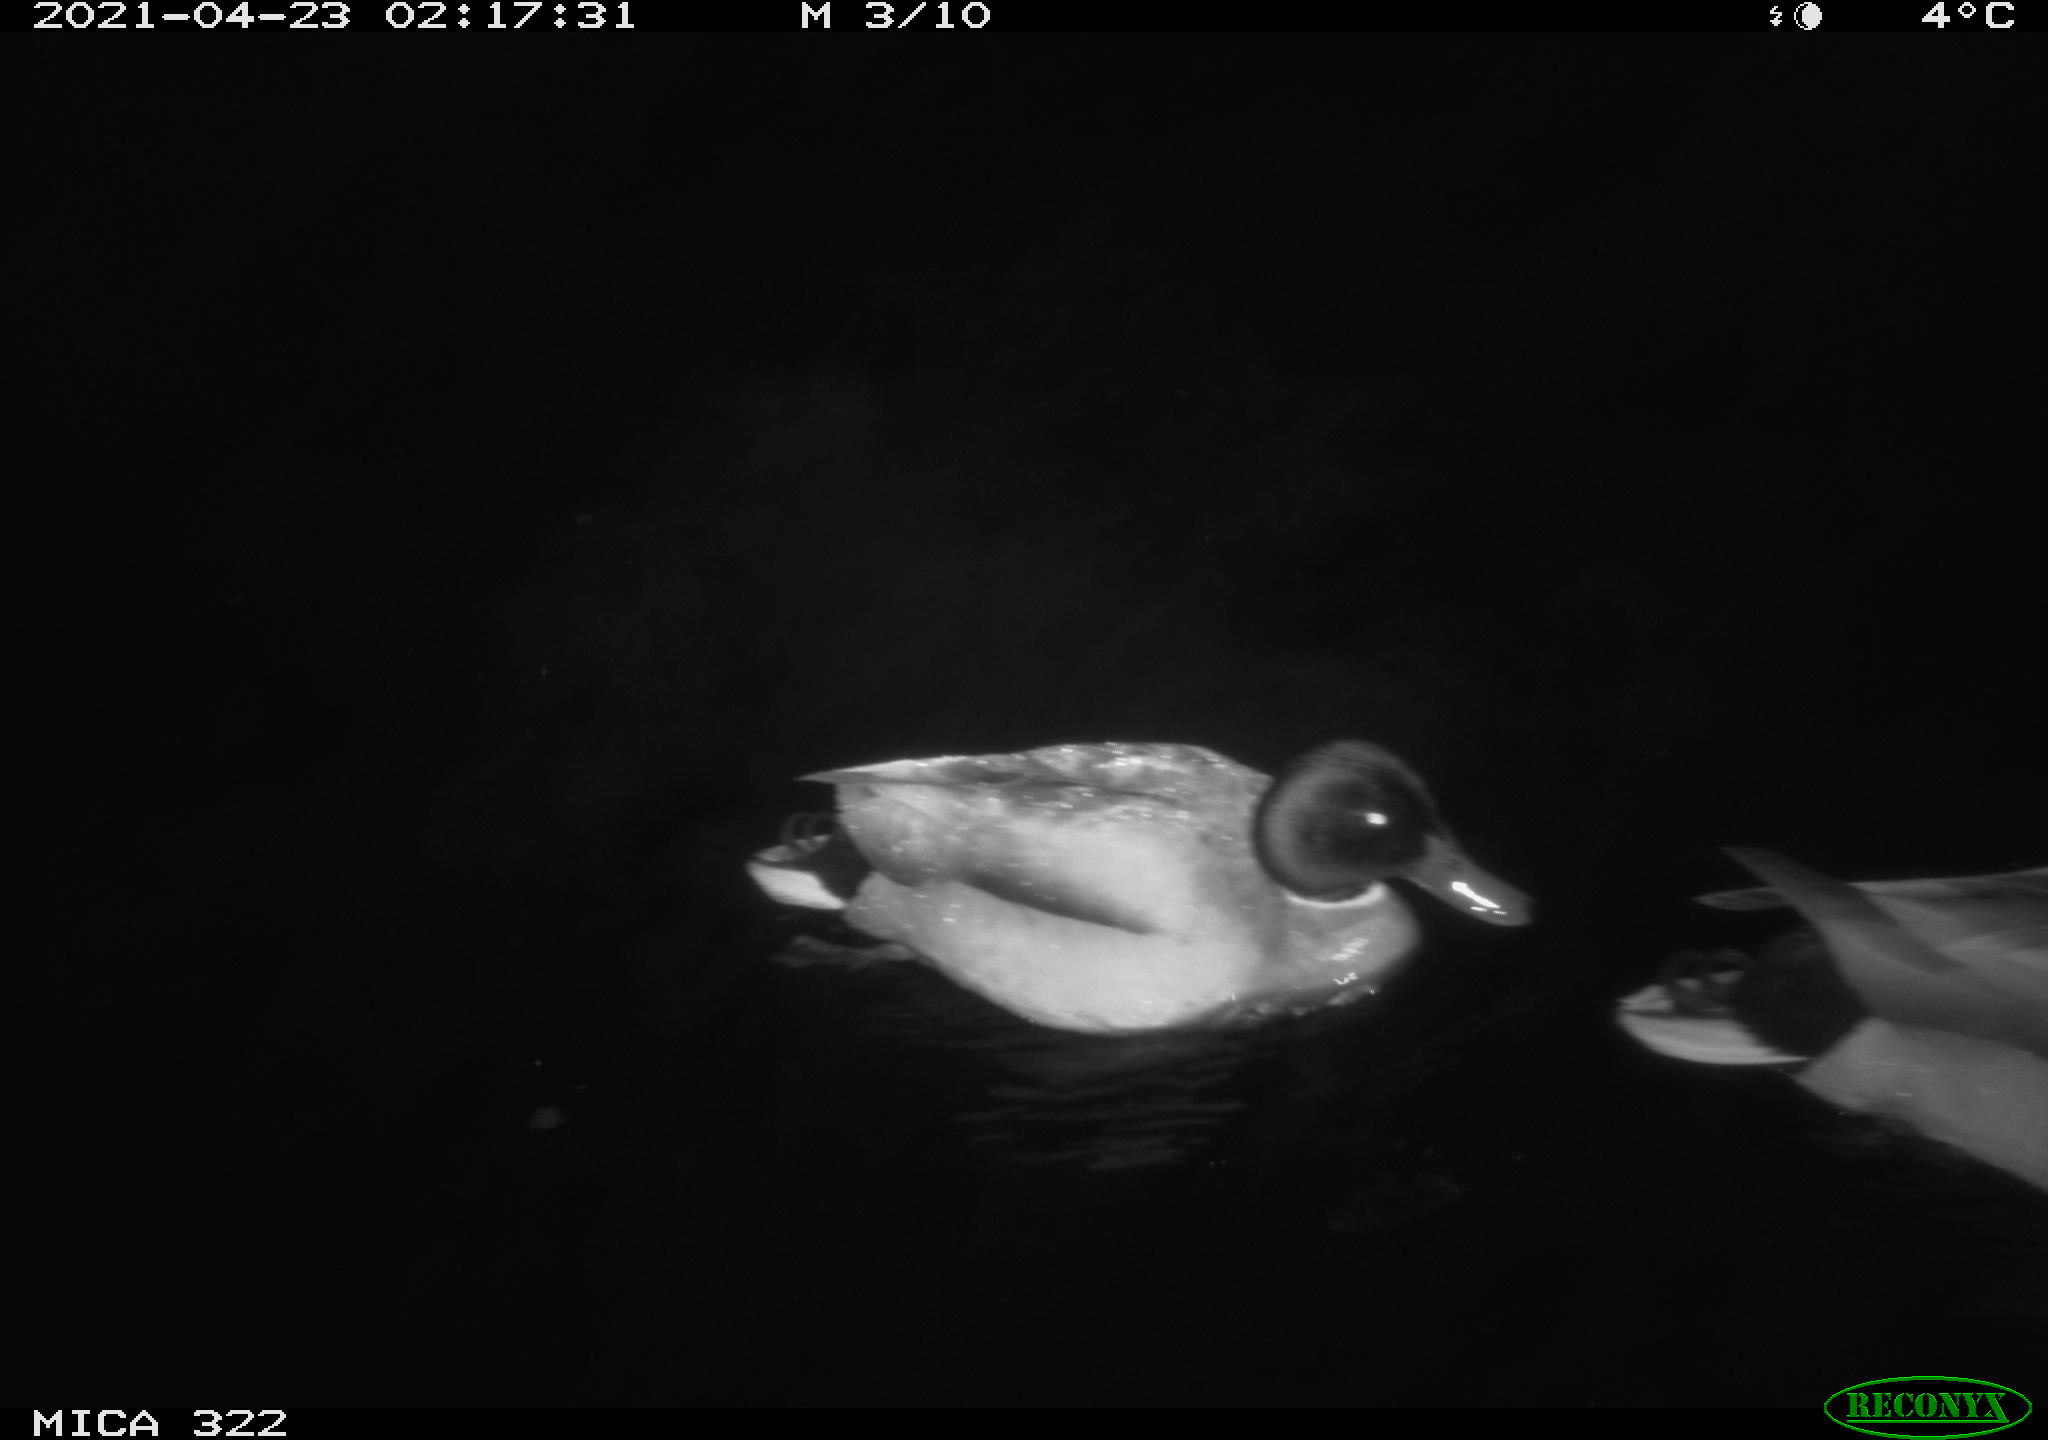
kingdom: Animalia
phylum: Chordata
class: Aves
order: Anseriformes
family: Anatidae
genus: Anas
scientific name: Anas platyrhynchos
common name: Mallard
